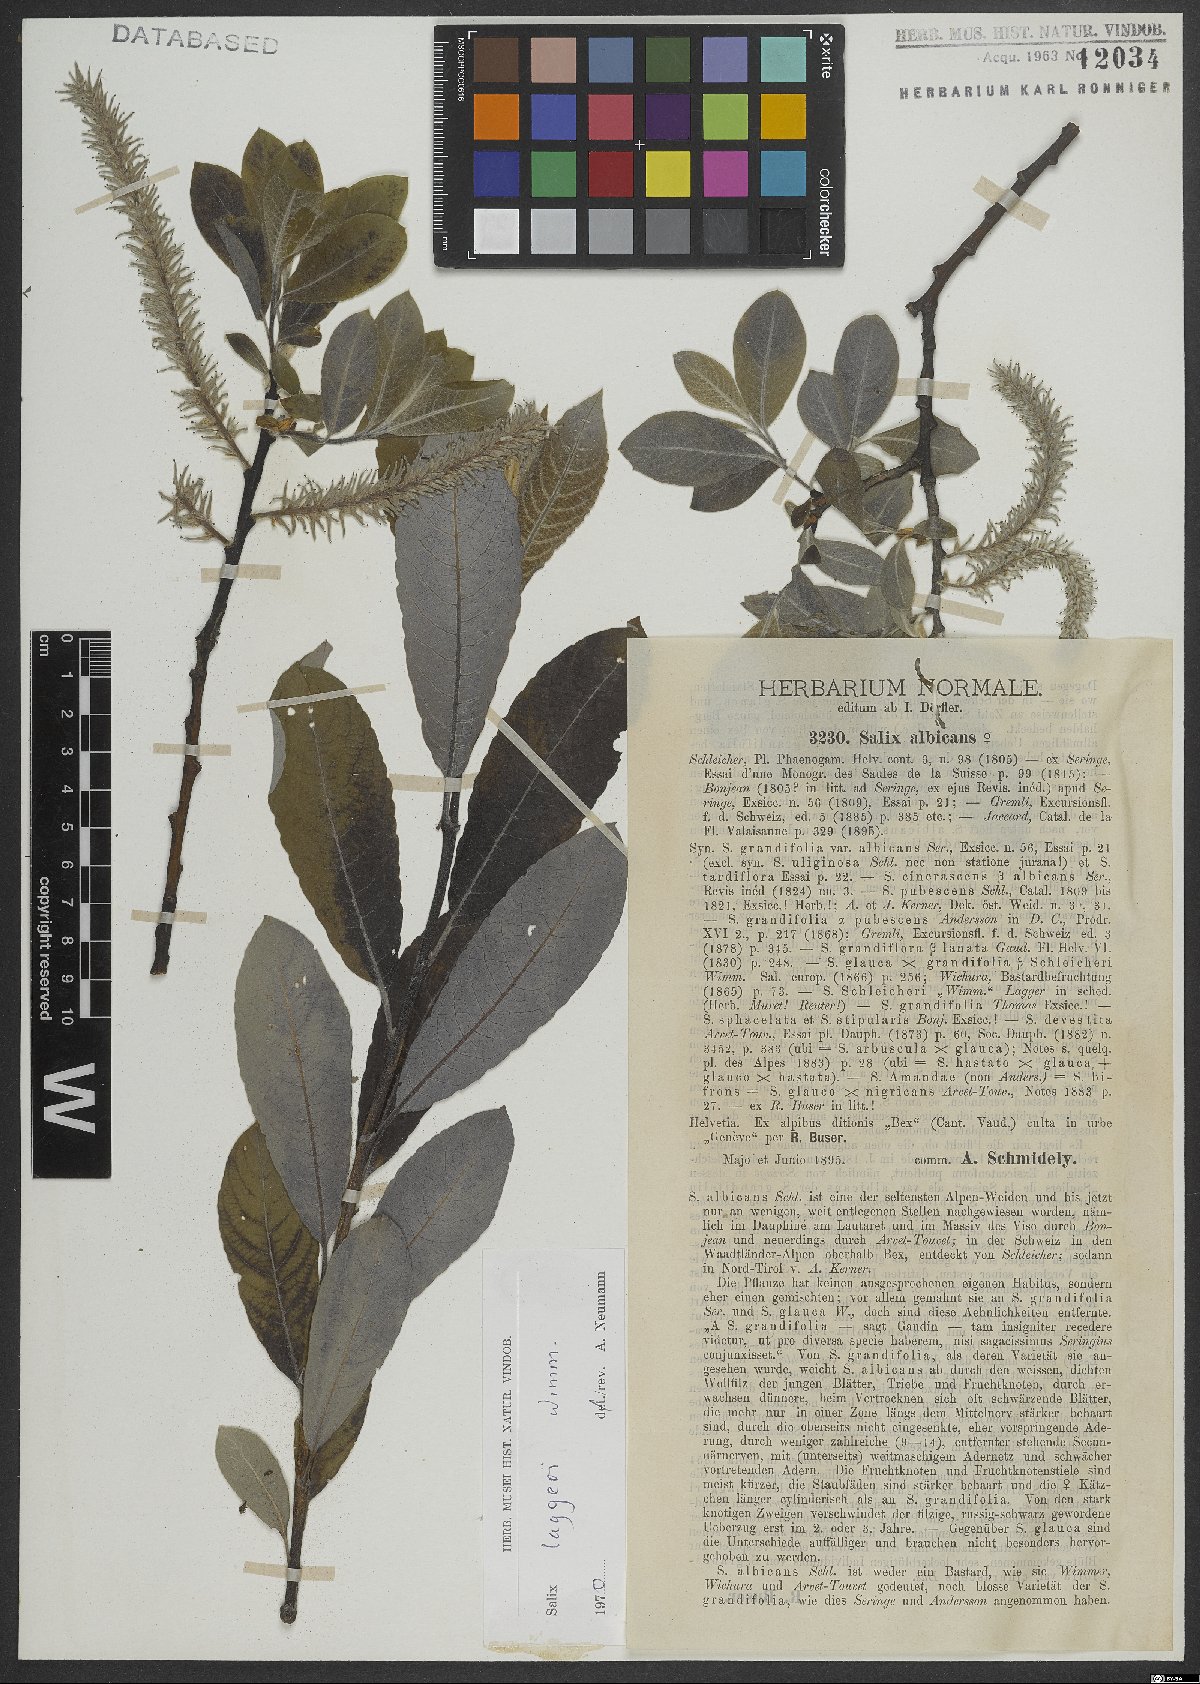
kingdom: Plantae
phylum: Tracheophyta
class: Magnoliopsida
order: Malpighiales
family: Salicaceae
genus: Salix
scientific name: Salix laggeri
